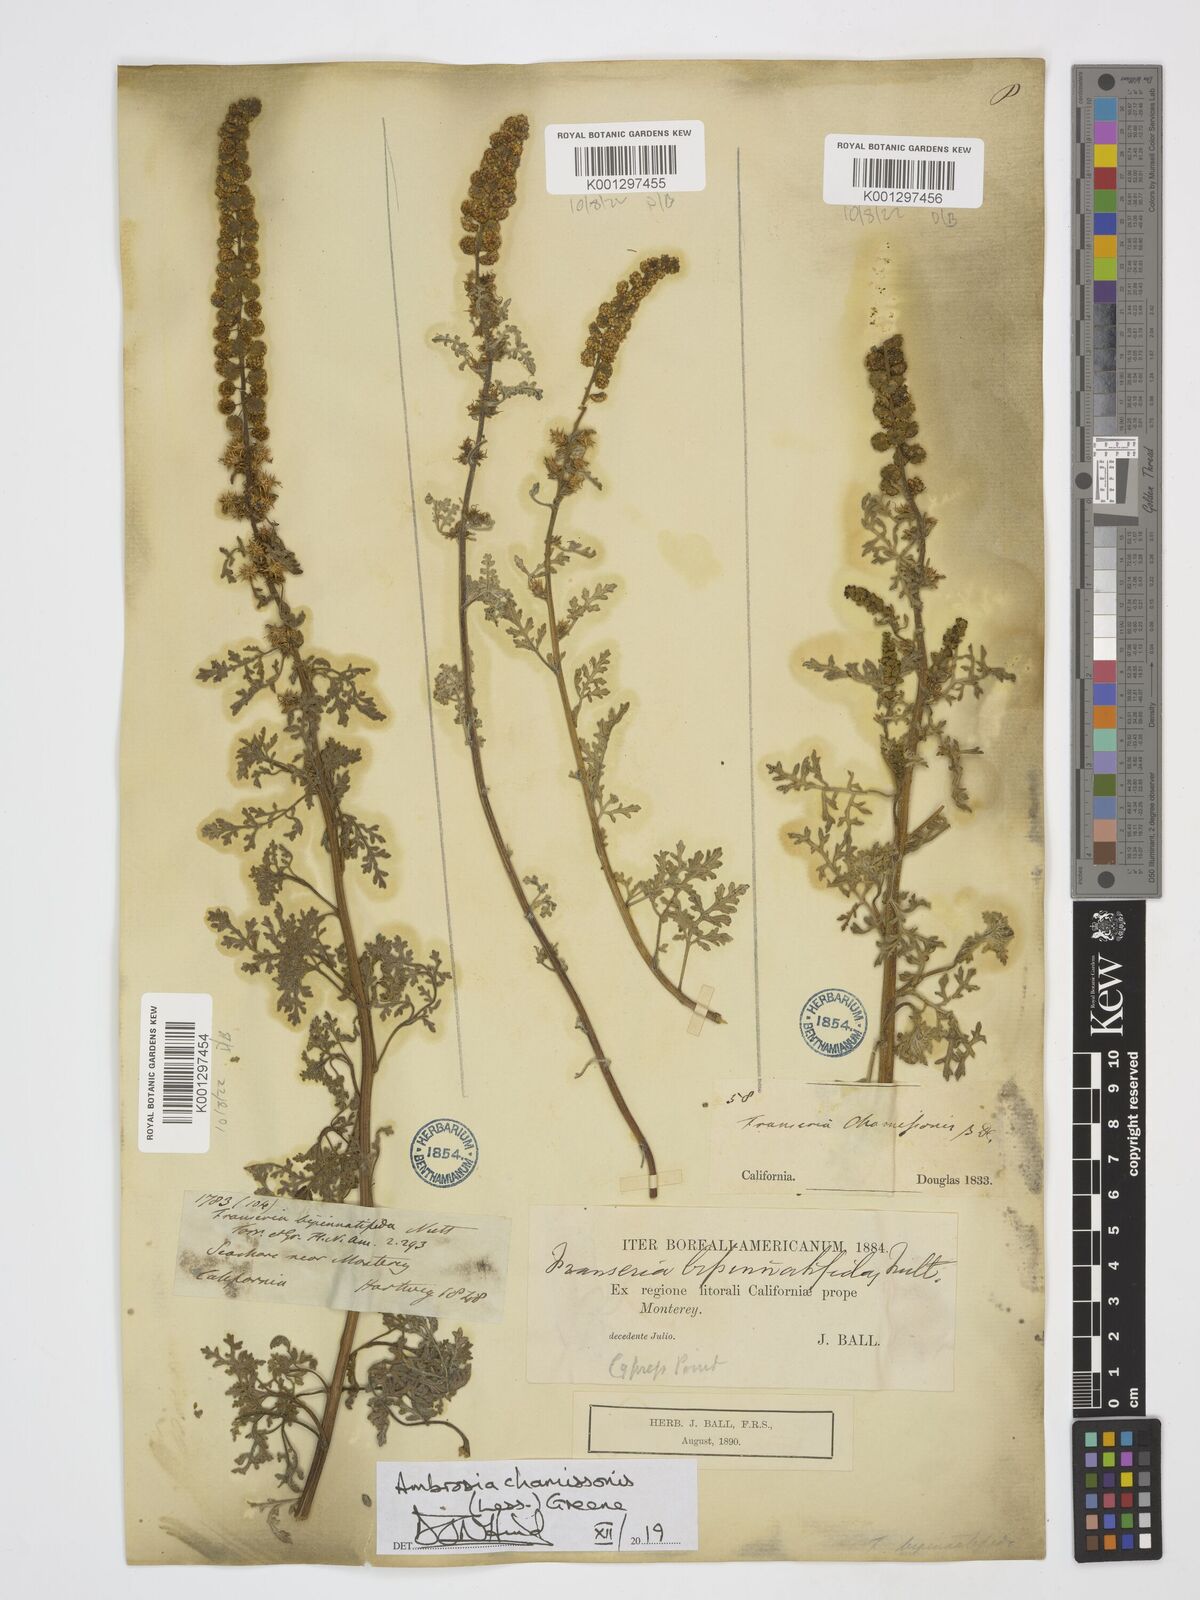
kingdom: Plantae
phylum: Tracheophyta
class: Magnoliopsida
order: Asterales
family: Asteraceae
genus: Ambrosia
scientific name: Ambrosia chamissonis
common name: Beachbur
